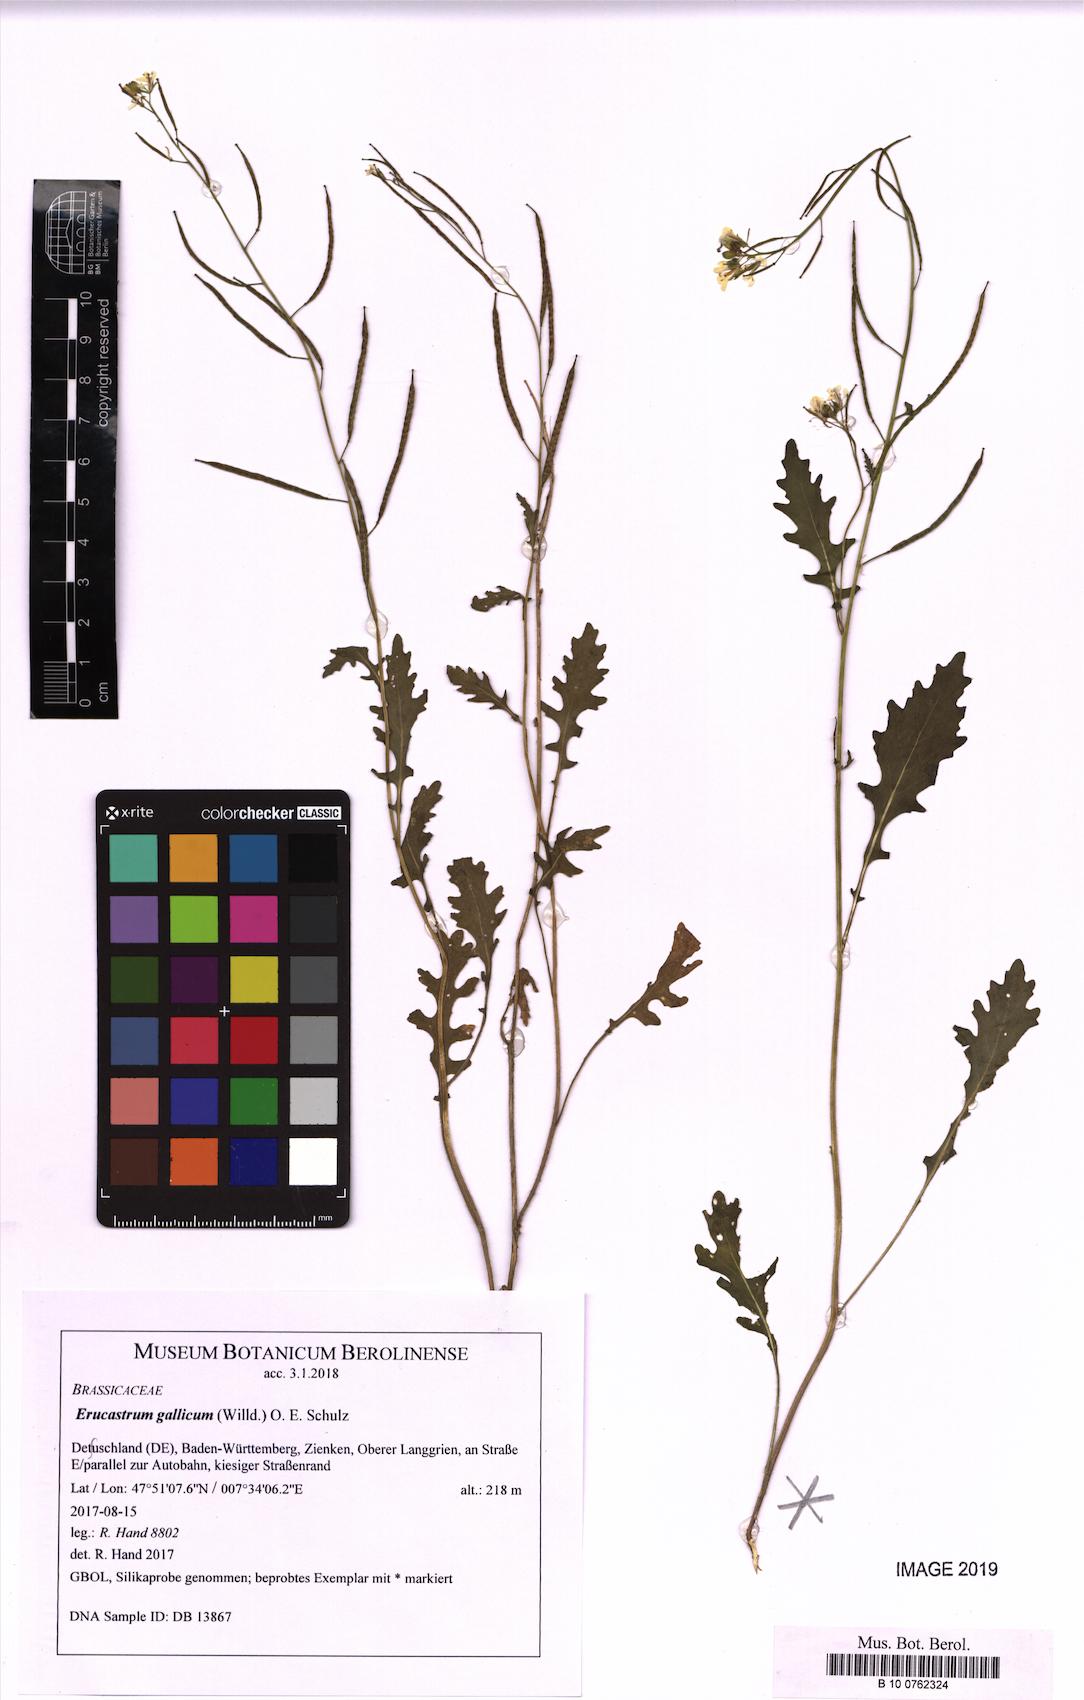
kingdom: Plantae
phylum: Tracheophyta
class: Magnoliopsida
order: Brassicales
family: Brassicaceae
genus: Erucastrum
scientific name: Erucastrum gallicum
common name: Hairy rocket
